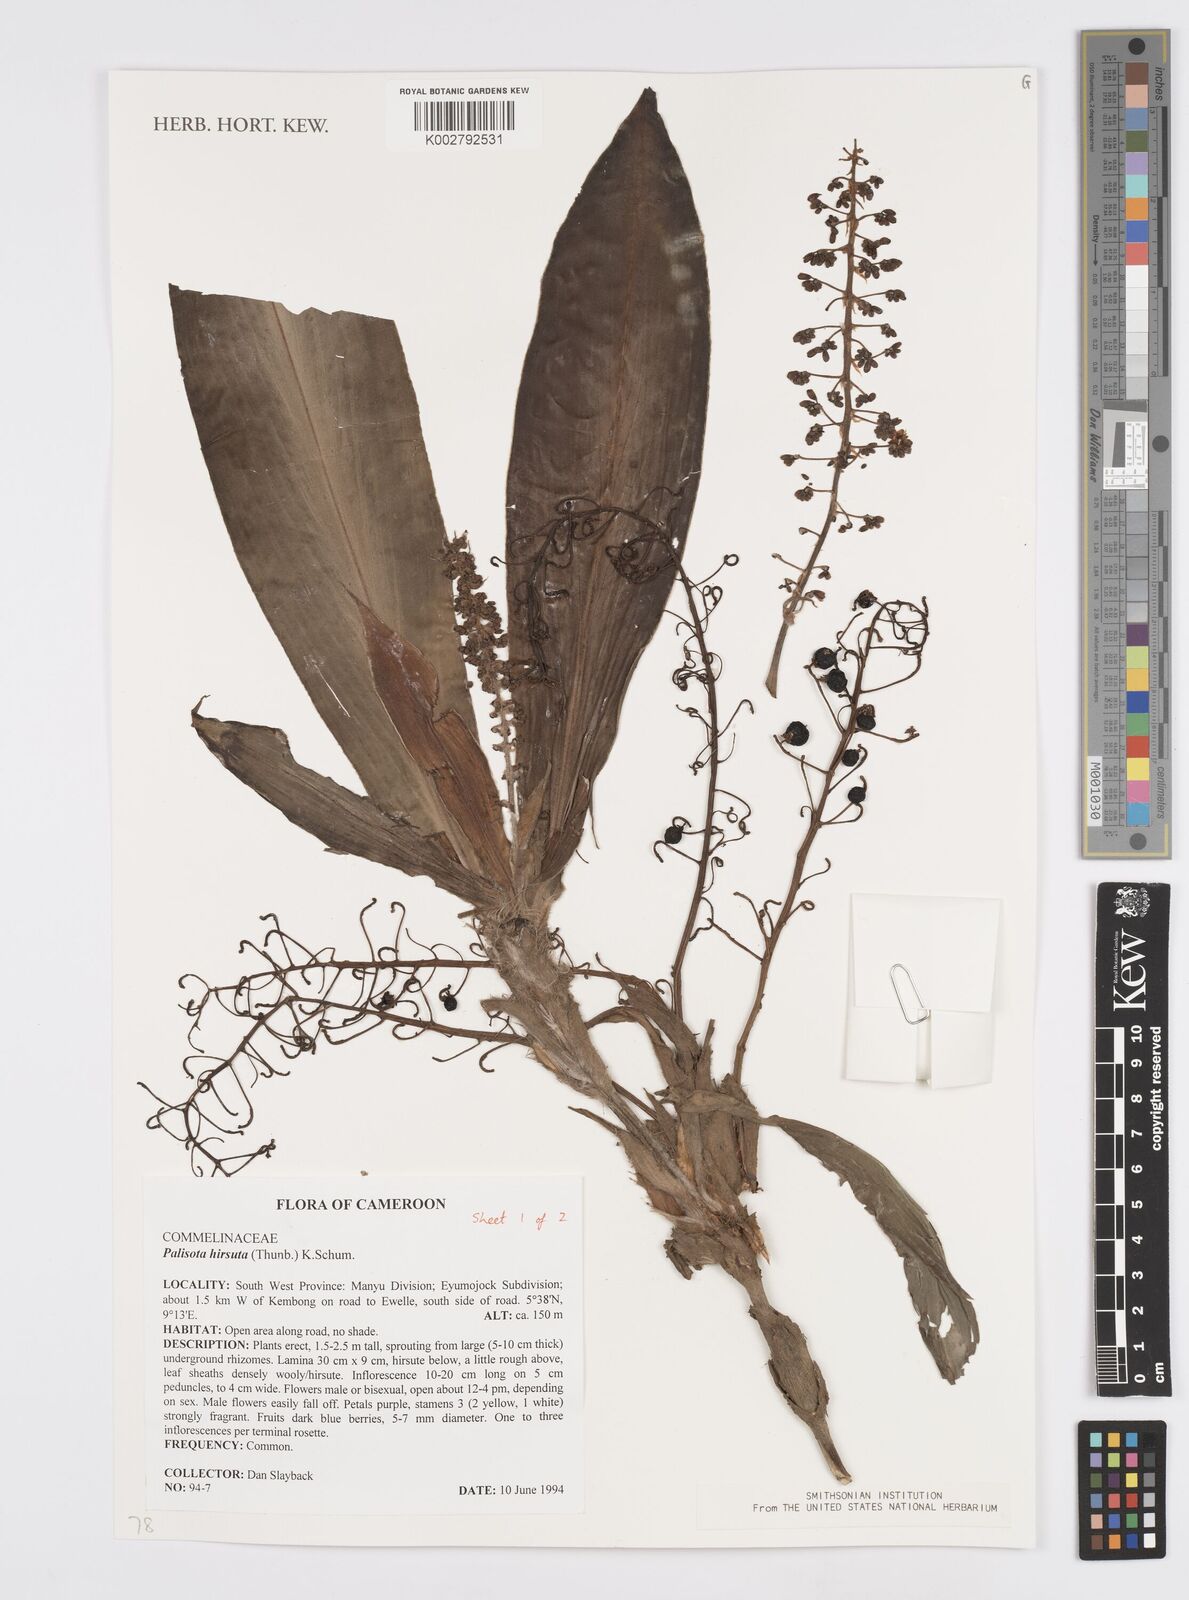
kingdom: Plantae
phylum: Tracheophyta
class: Liliopsida
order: Commelinales
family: Commelinaceae
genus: Palisota
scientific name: Palisota hirsuta
